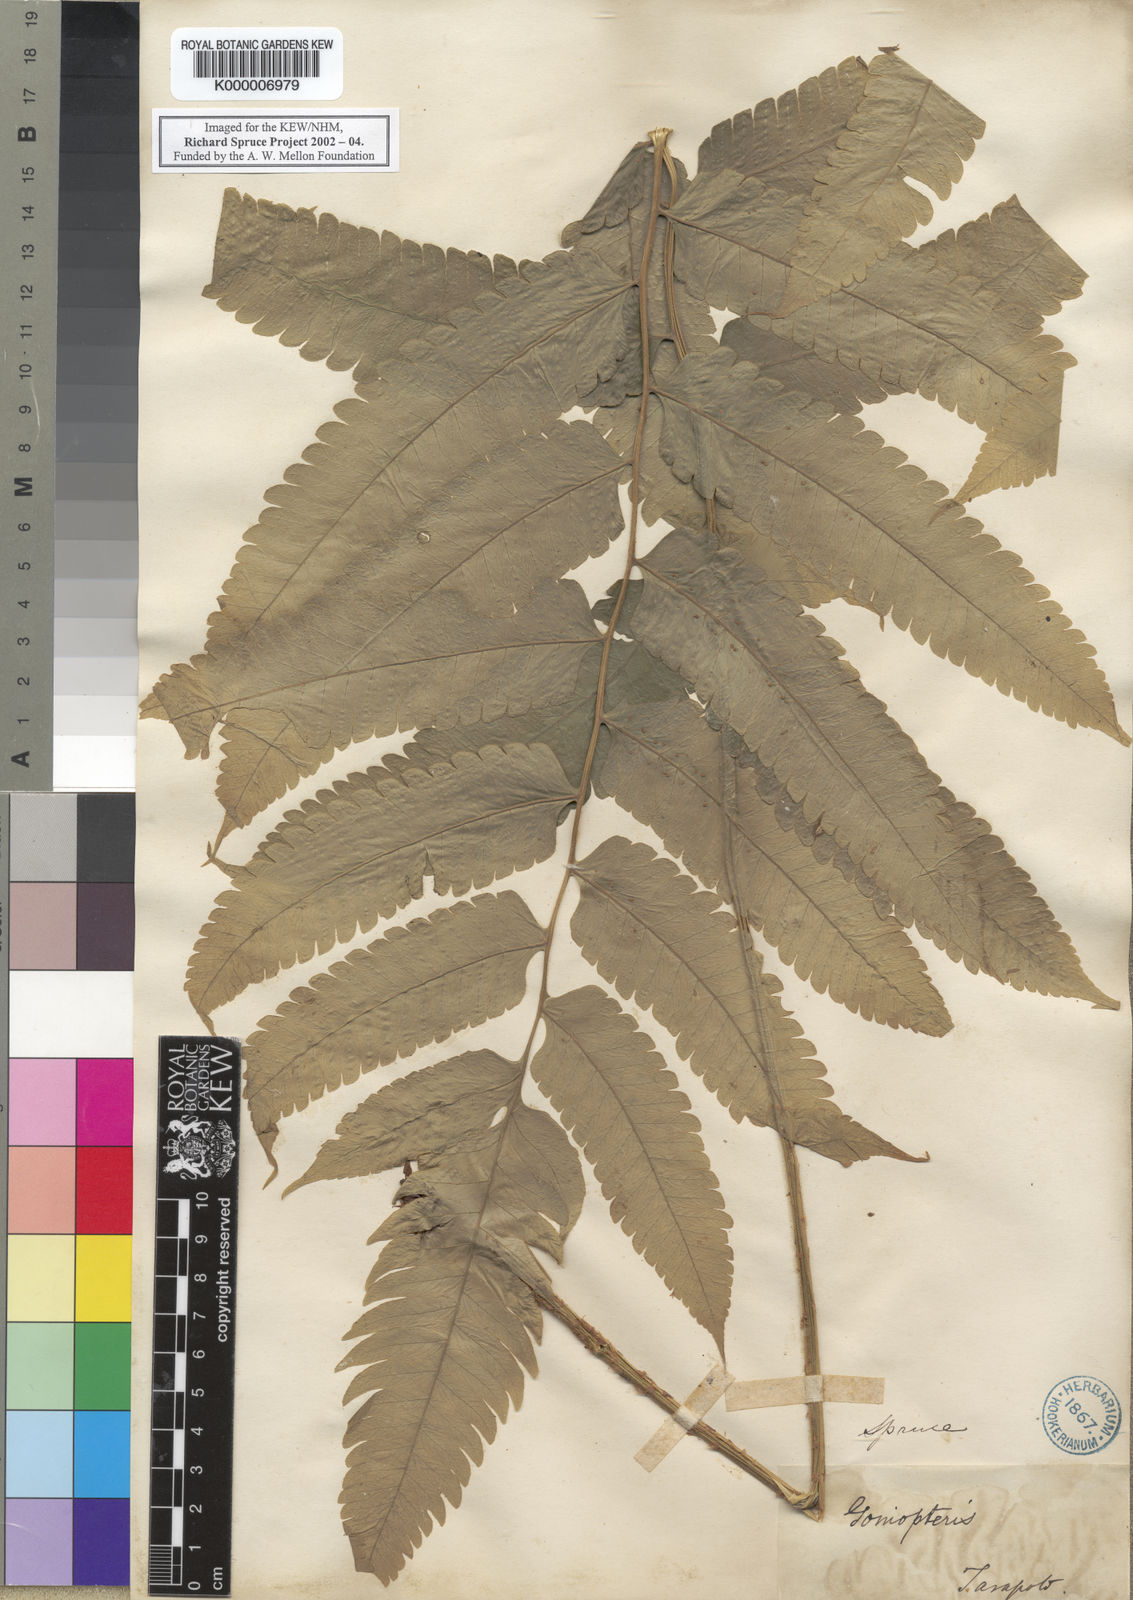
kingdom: Plantae
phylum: Tracheophyta
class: Polypodiopsida
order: Polypodiales
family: Thelypteridaceae
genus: Goniopteris
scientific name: Goniopteris pennata
